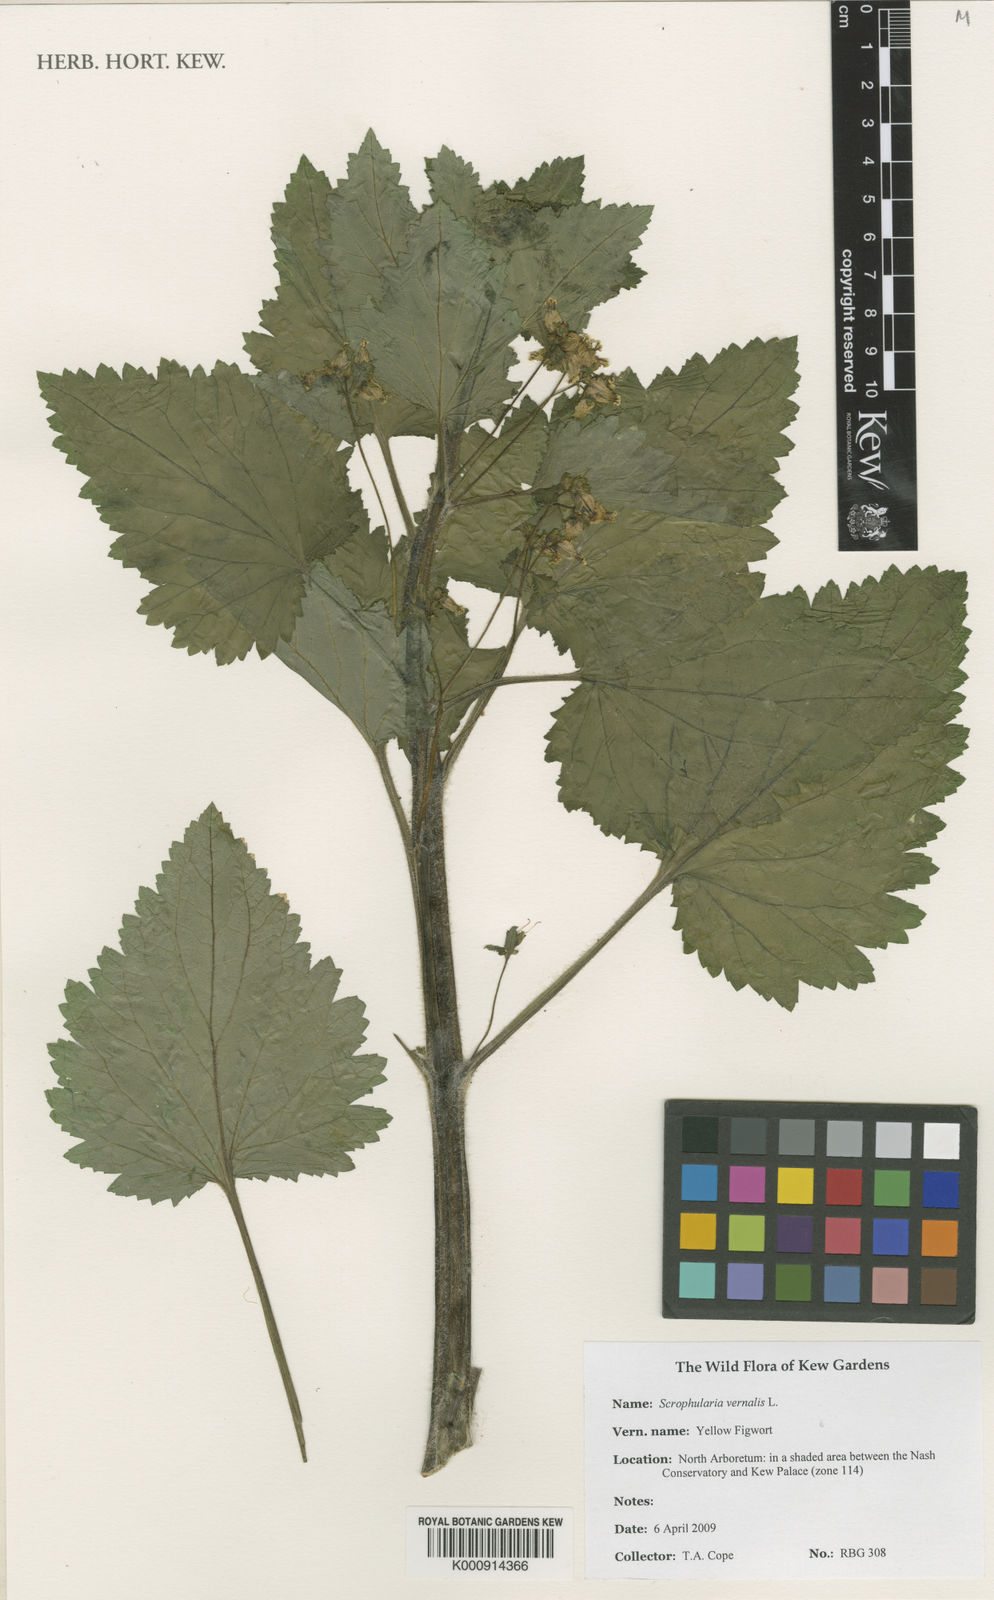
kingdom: Plantae
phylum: Tracheophyta
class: Magnoliopsida
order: Lamiales
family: Scrophulariaceae
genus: Scrophularia
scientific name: Scrophularia vernalis
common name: Yellow figwort
